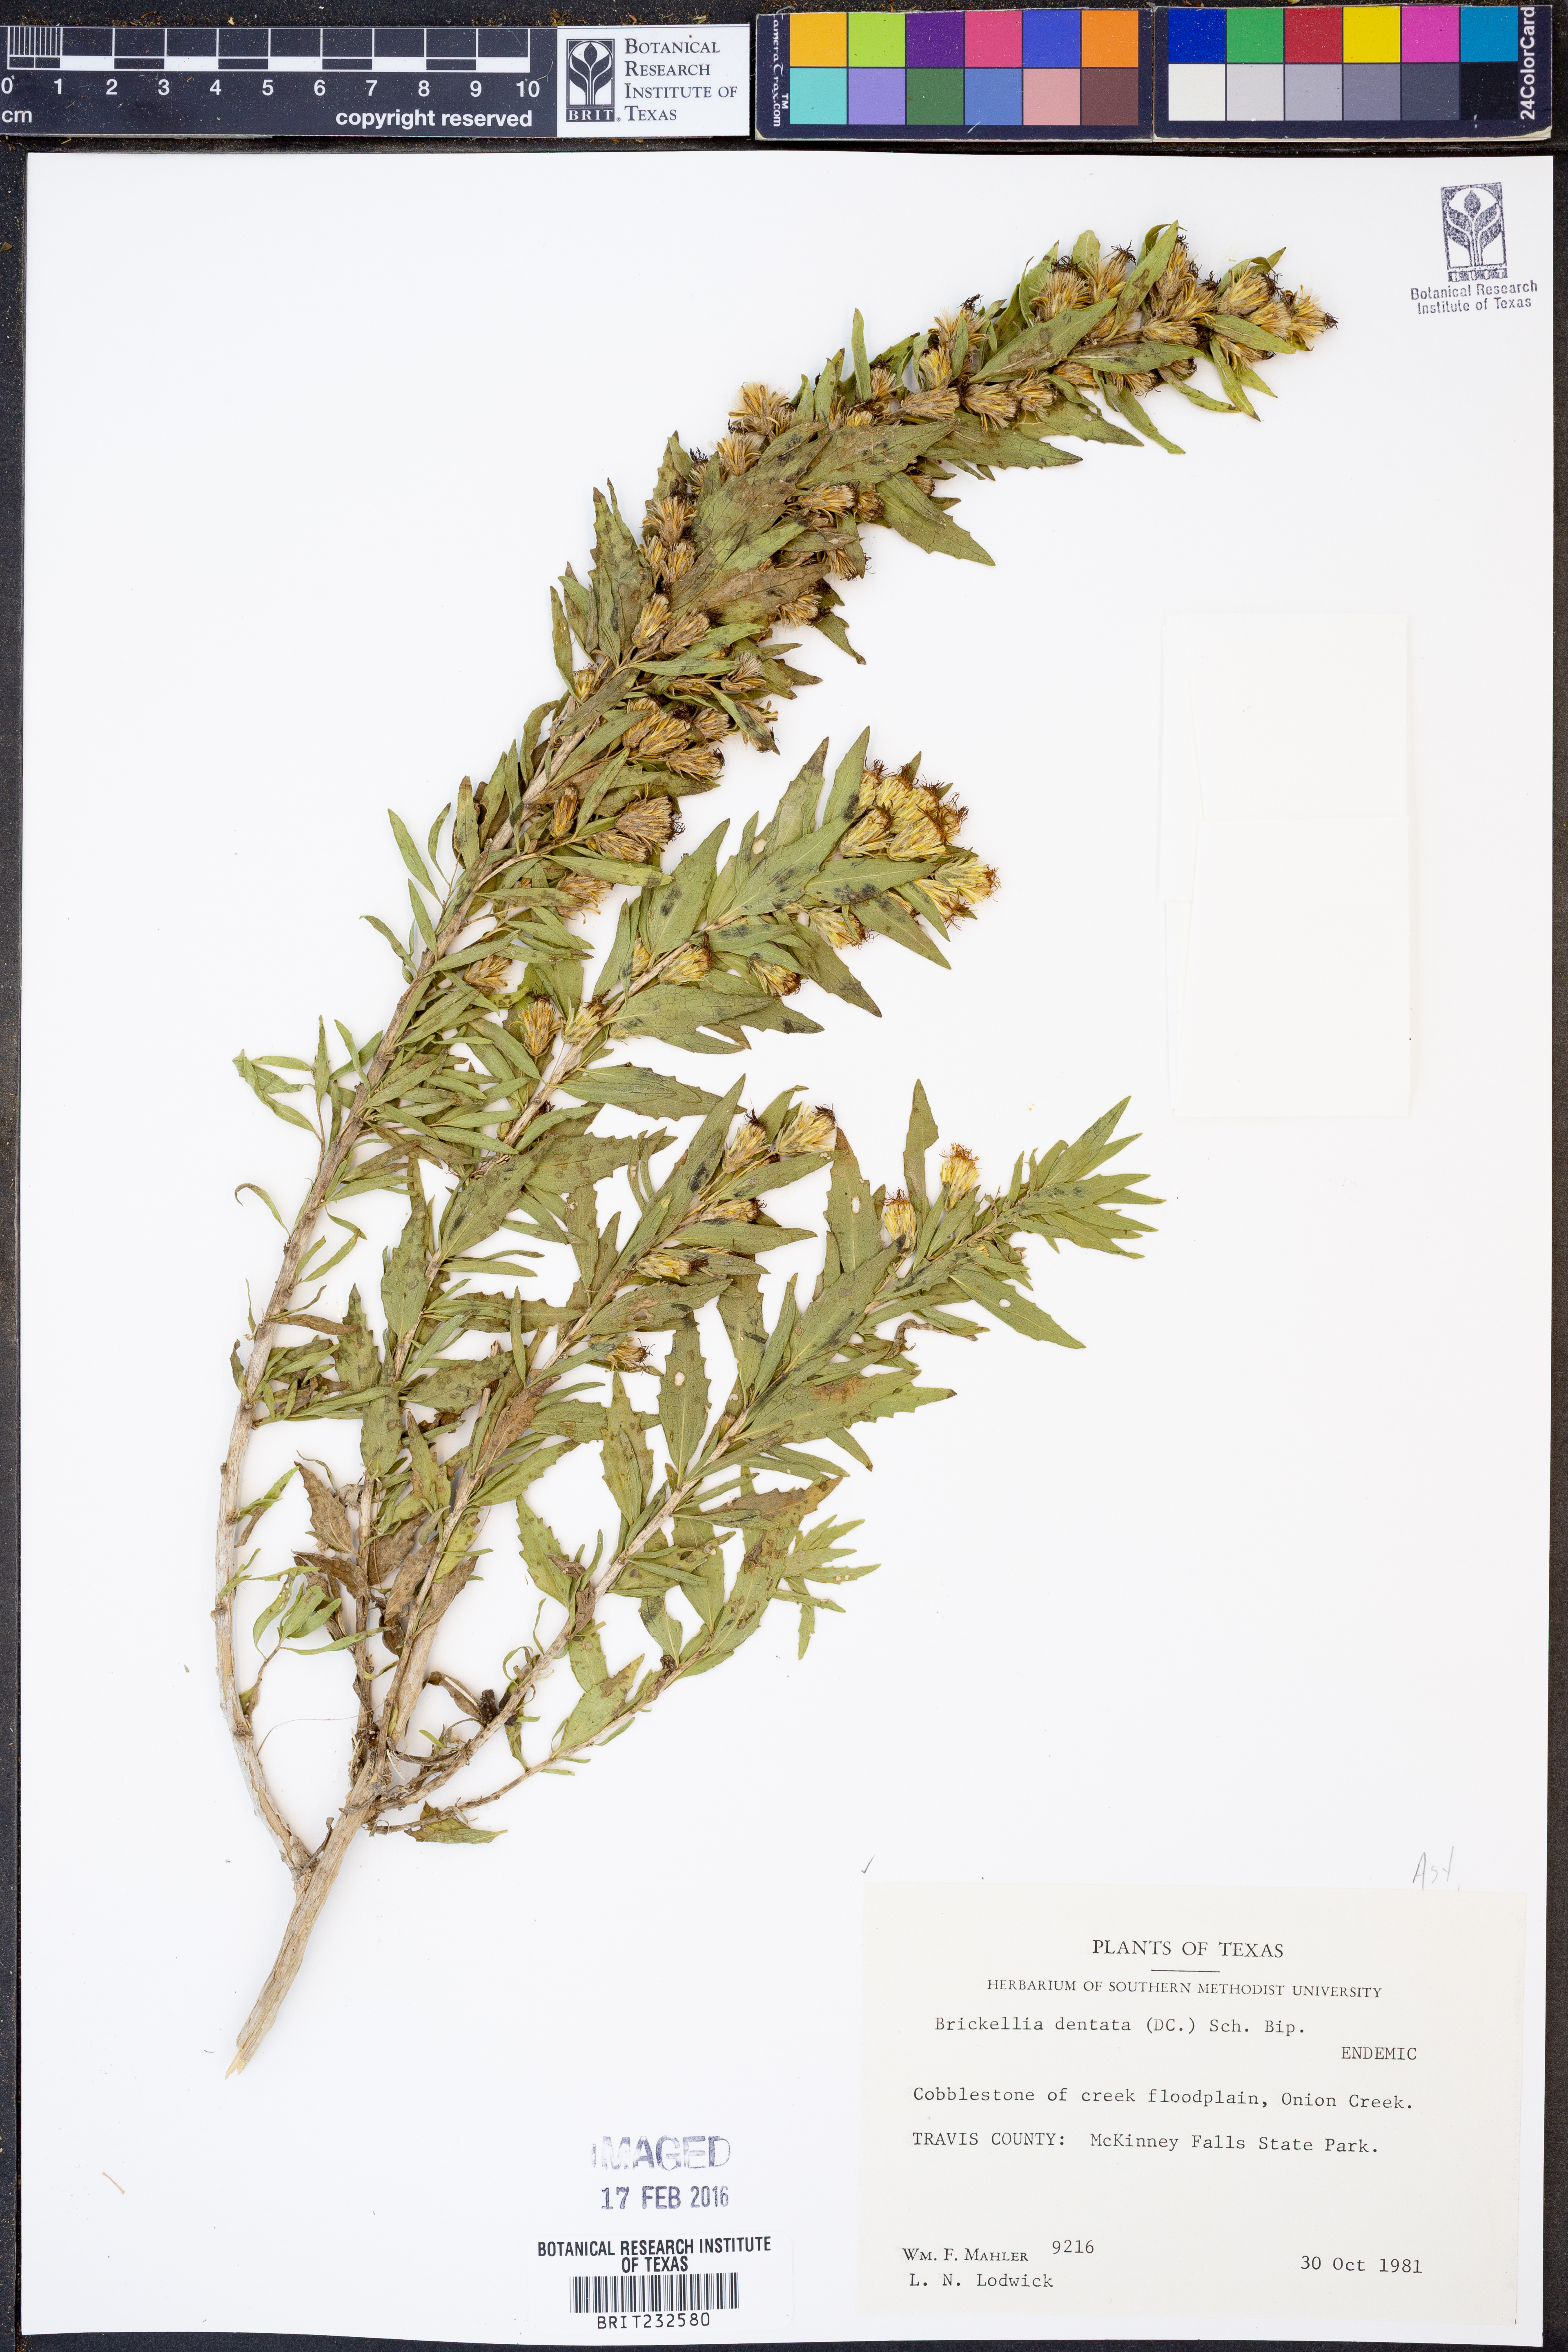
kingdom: Plantae
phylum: Tracheophyta
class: Magnoliopsida
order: Asterales
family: Asteraceae
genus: Brickellia
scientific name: Brickellia dentata
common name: Leafy brickellbush
